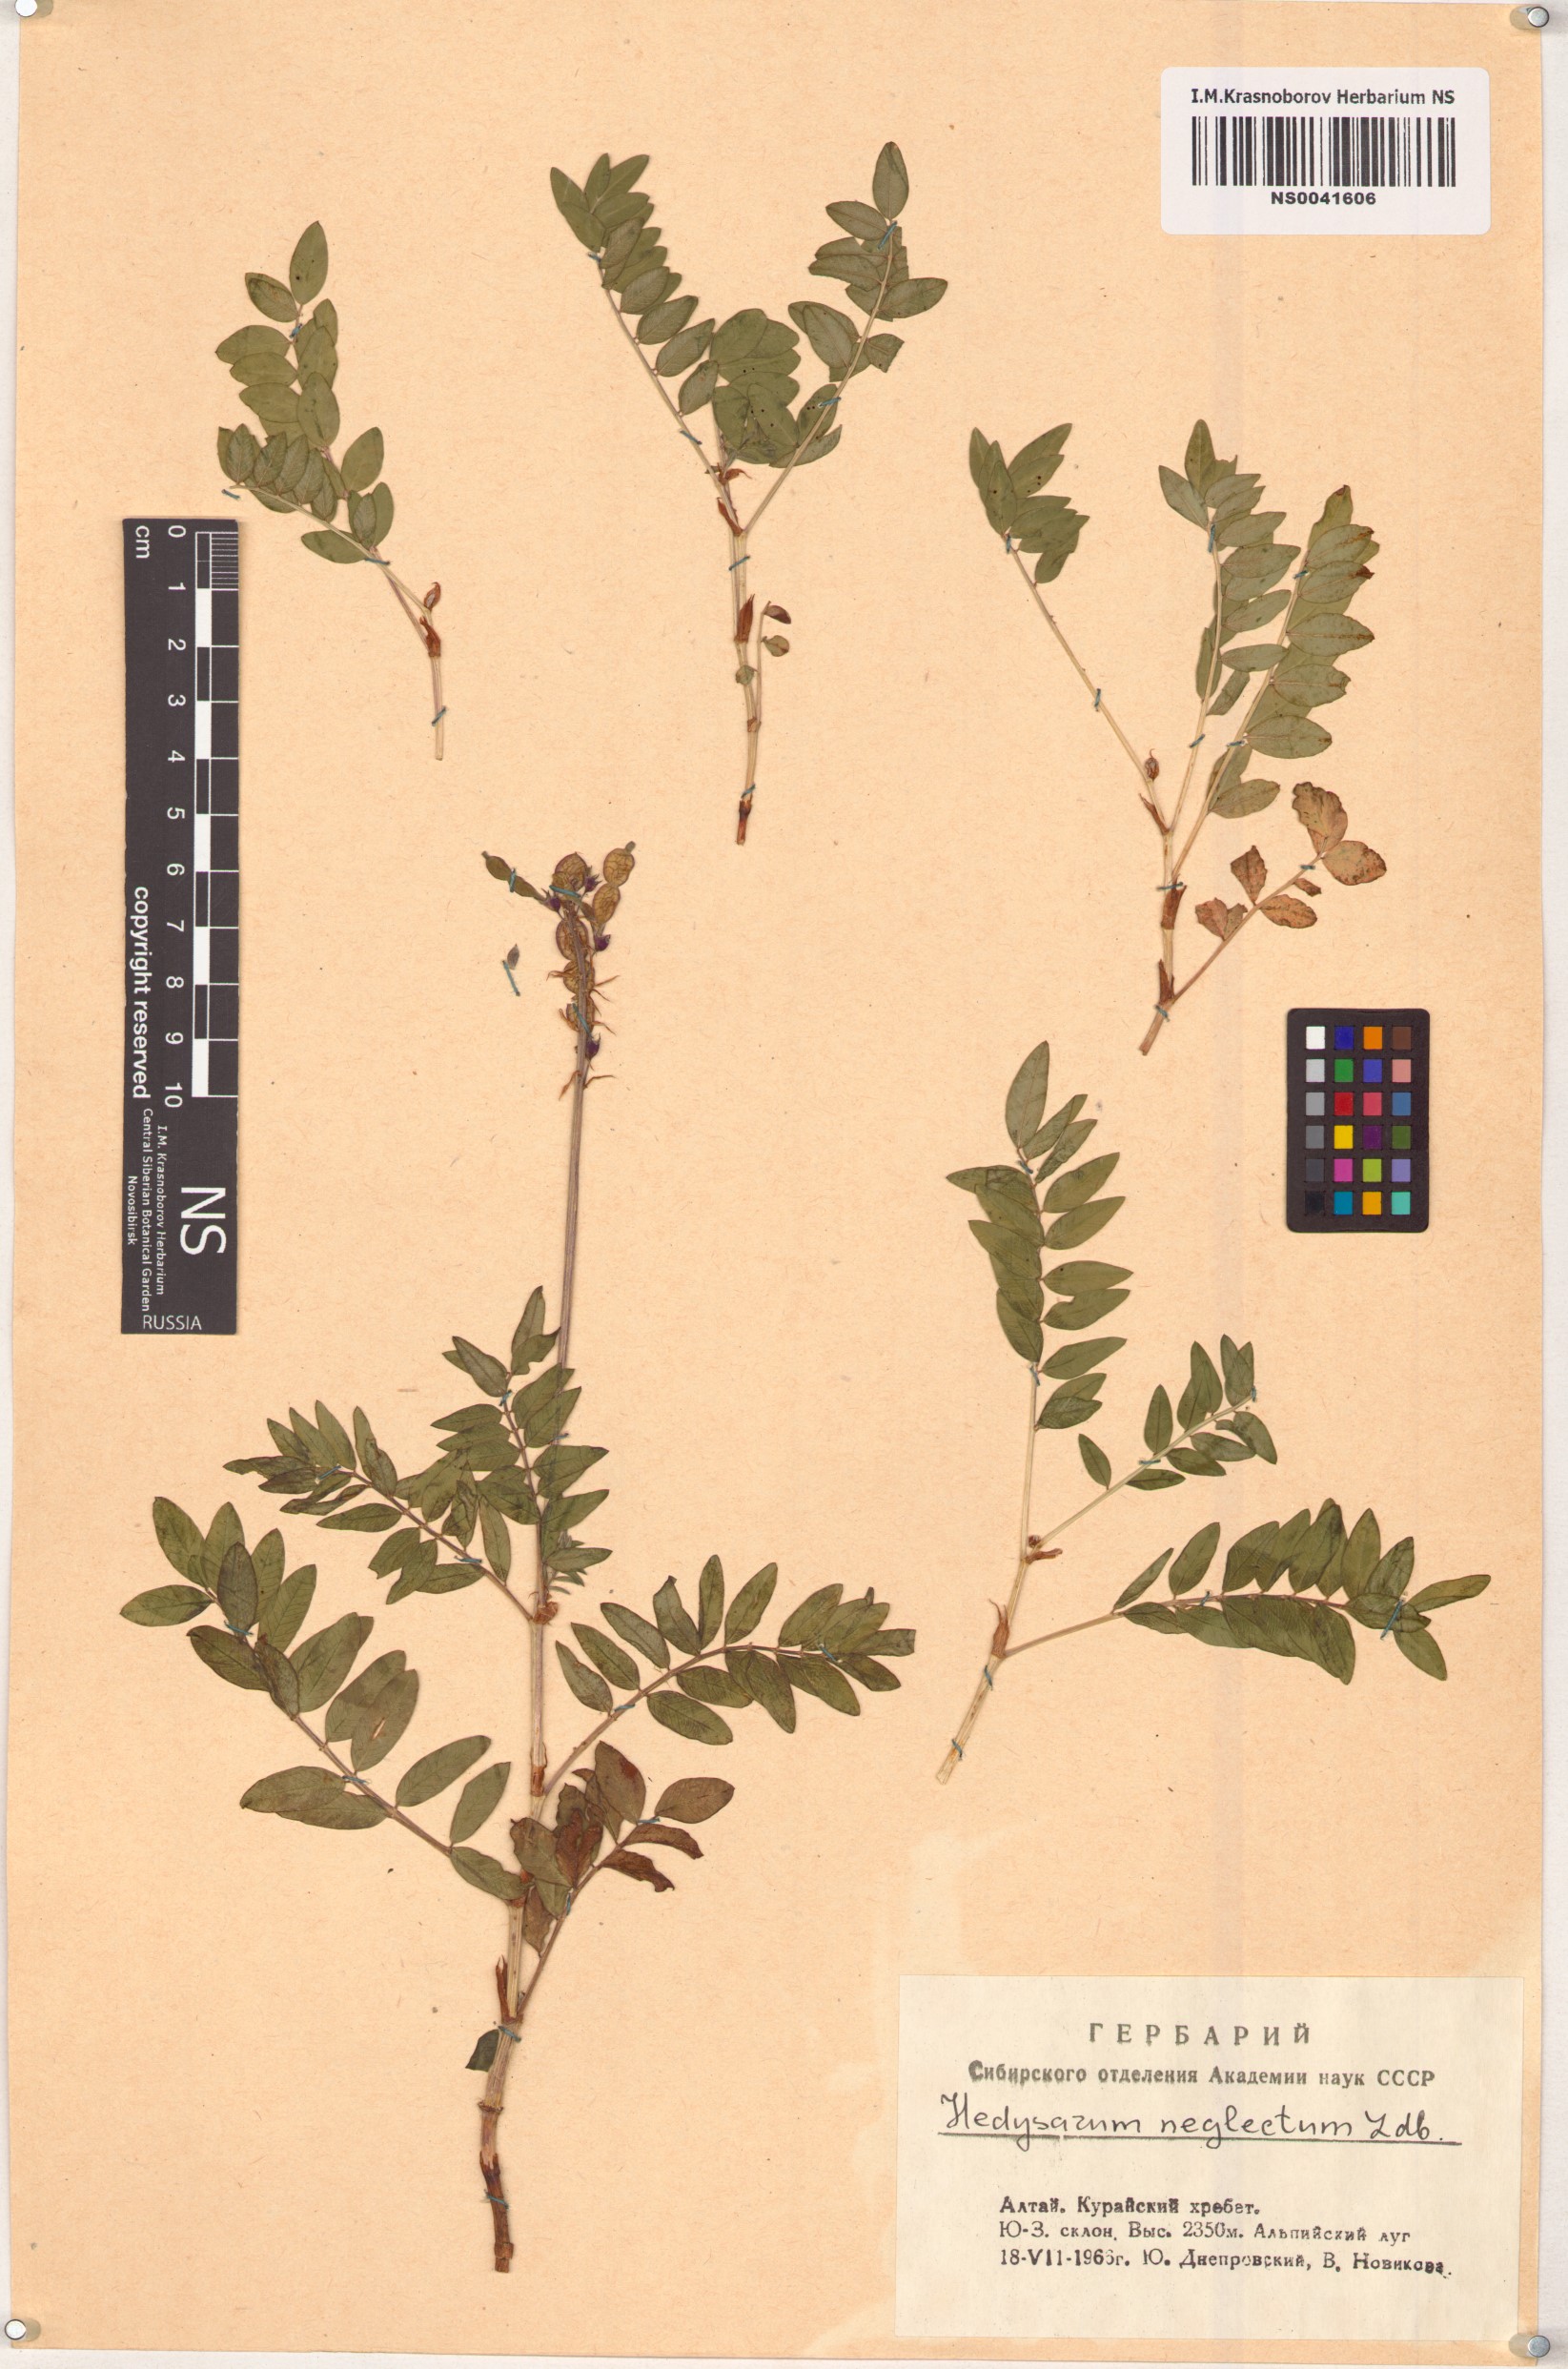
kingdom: Plantae
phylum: Tracheophyta
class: Magnoliopsida
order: Fabales
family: Fabaceae
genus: Hedysarum
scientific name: Hedysarum neglectum
